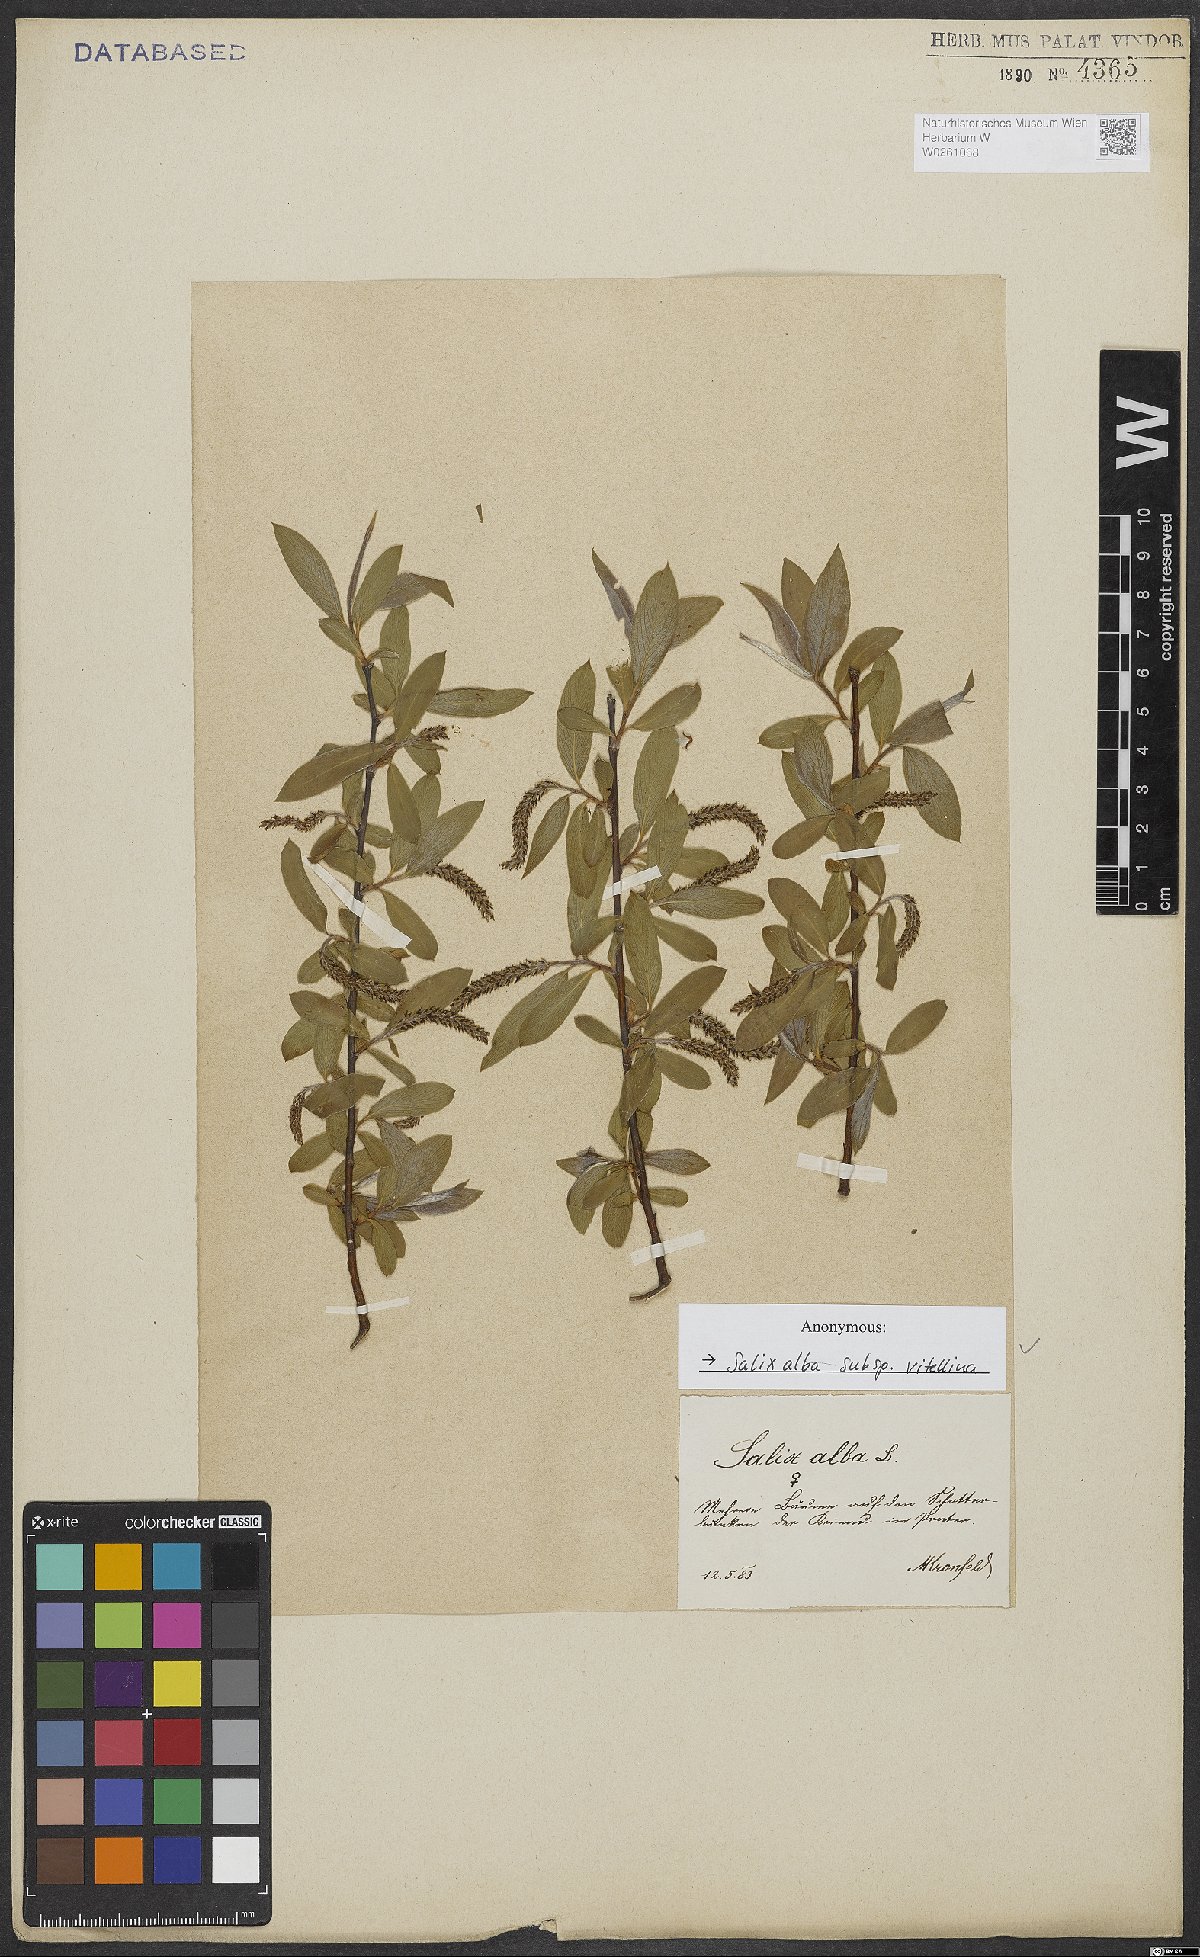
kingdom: Plantae
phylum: Tracheophyta
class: Magnoliopsida
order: Malpighiales
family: Salicaceae
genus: Salix
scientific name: Salix alba
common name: White willow
